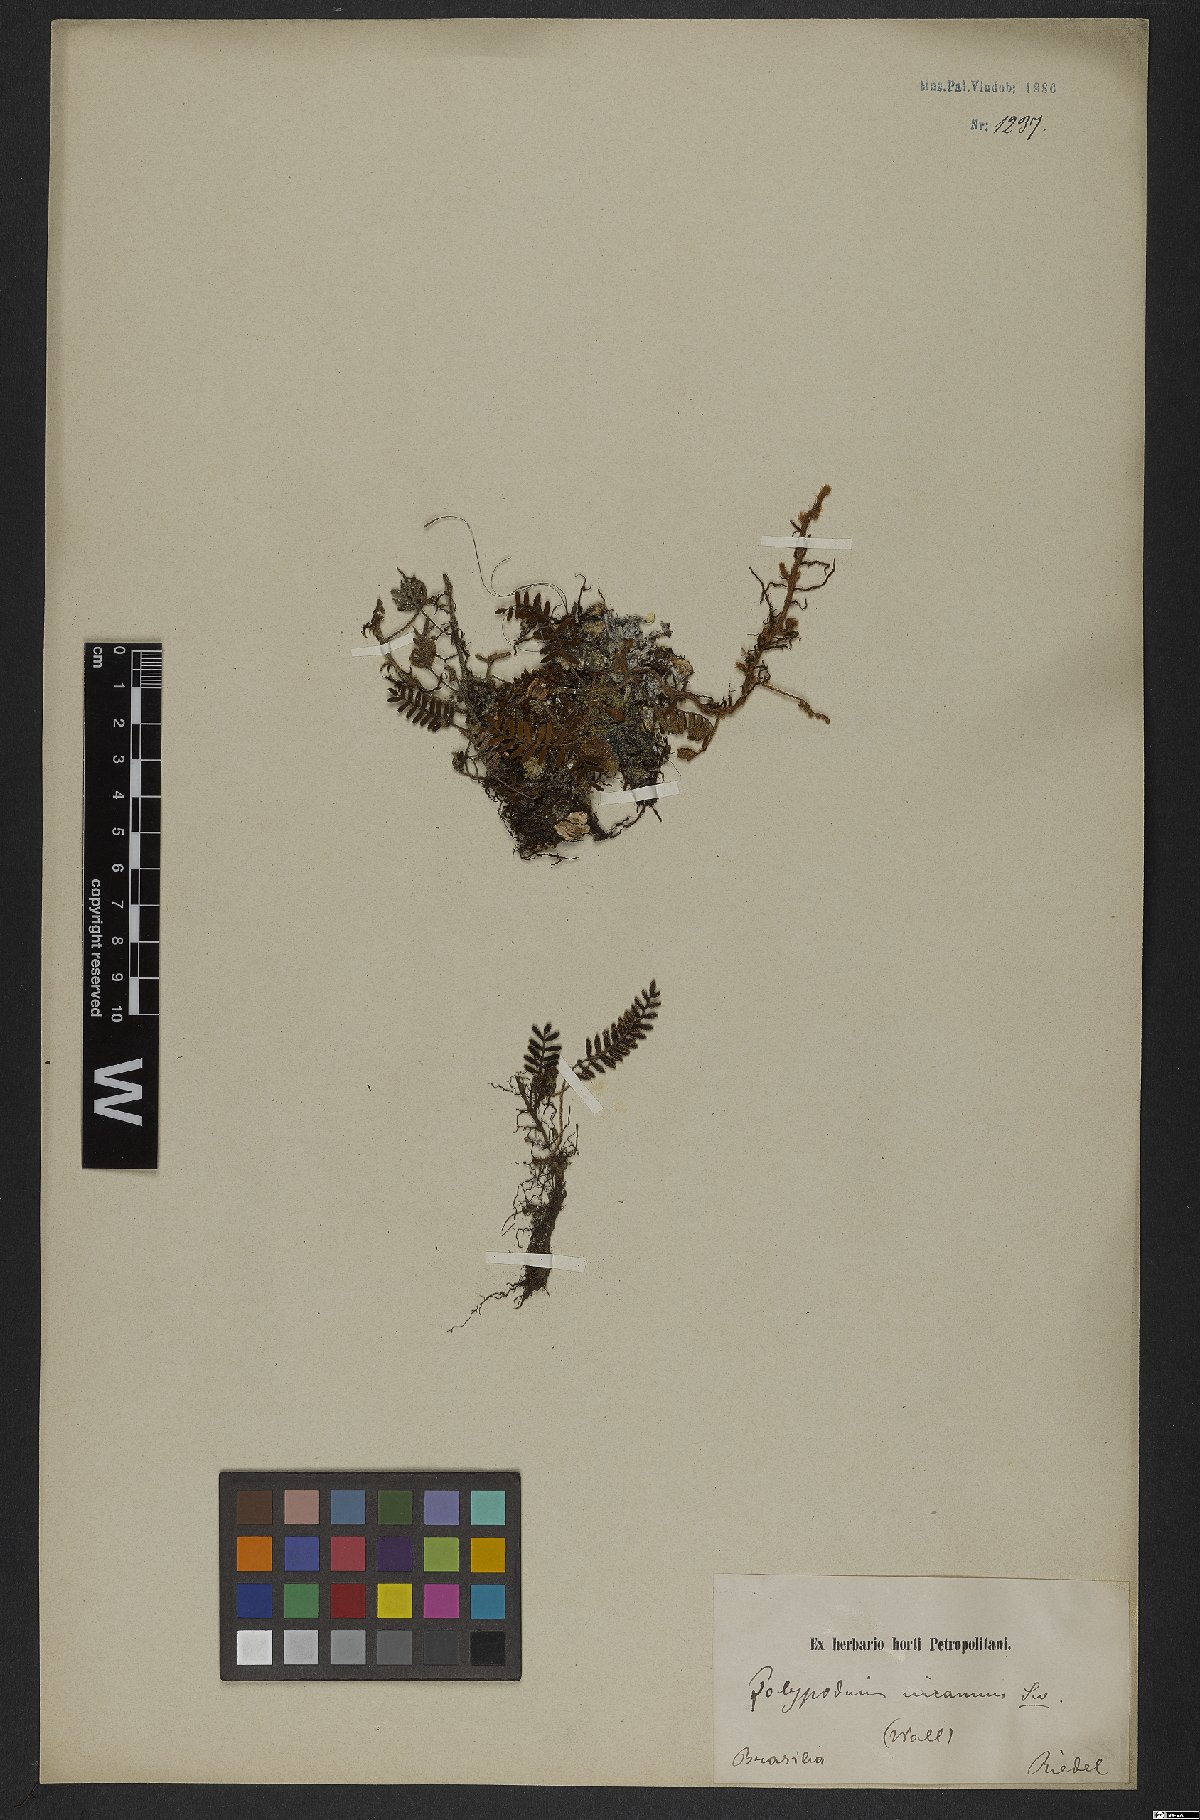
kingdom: Plantae
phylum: Tracheophyta
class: Polypodiopsida
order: Polypodiales
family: Polypodiaceae
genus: Pleopeltis
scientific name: Pleopeltis polypodioides
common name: Resurrection fern
